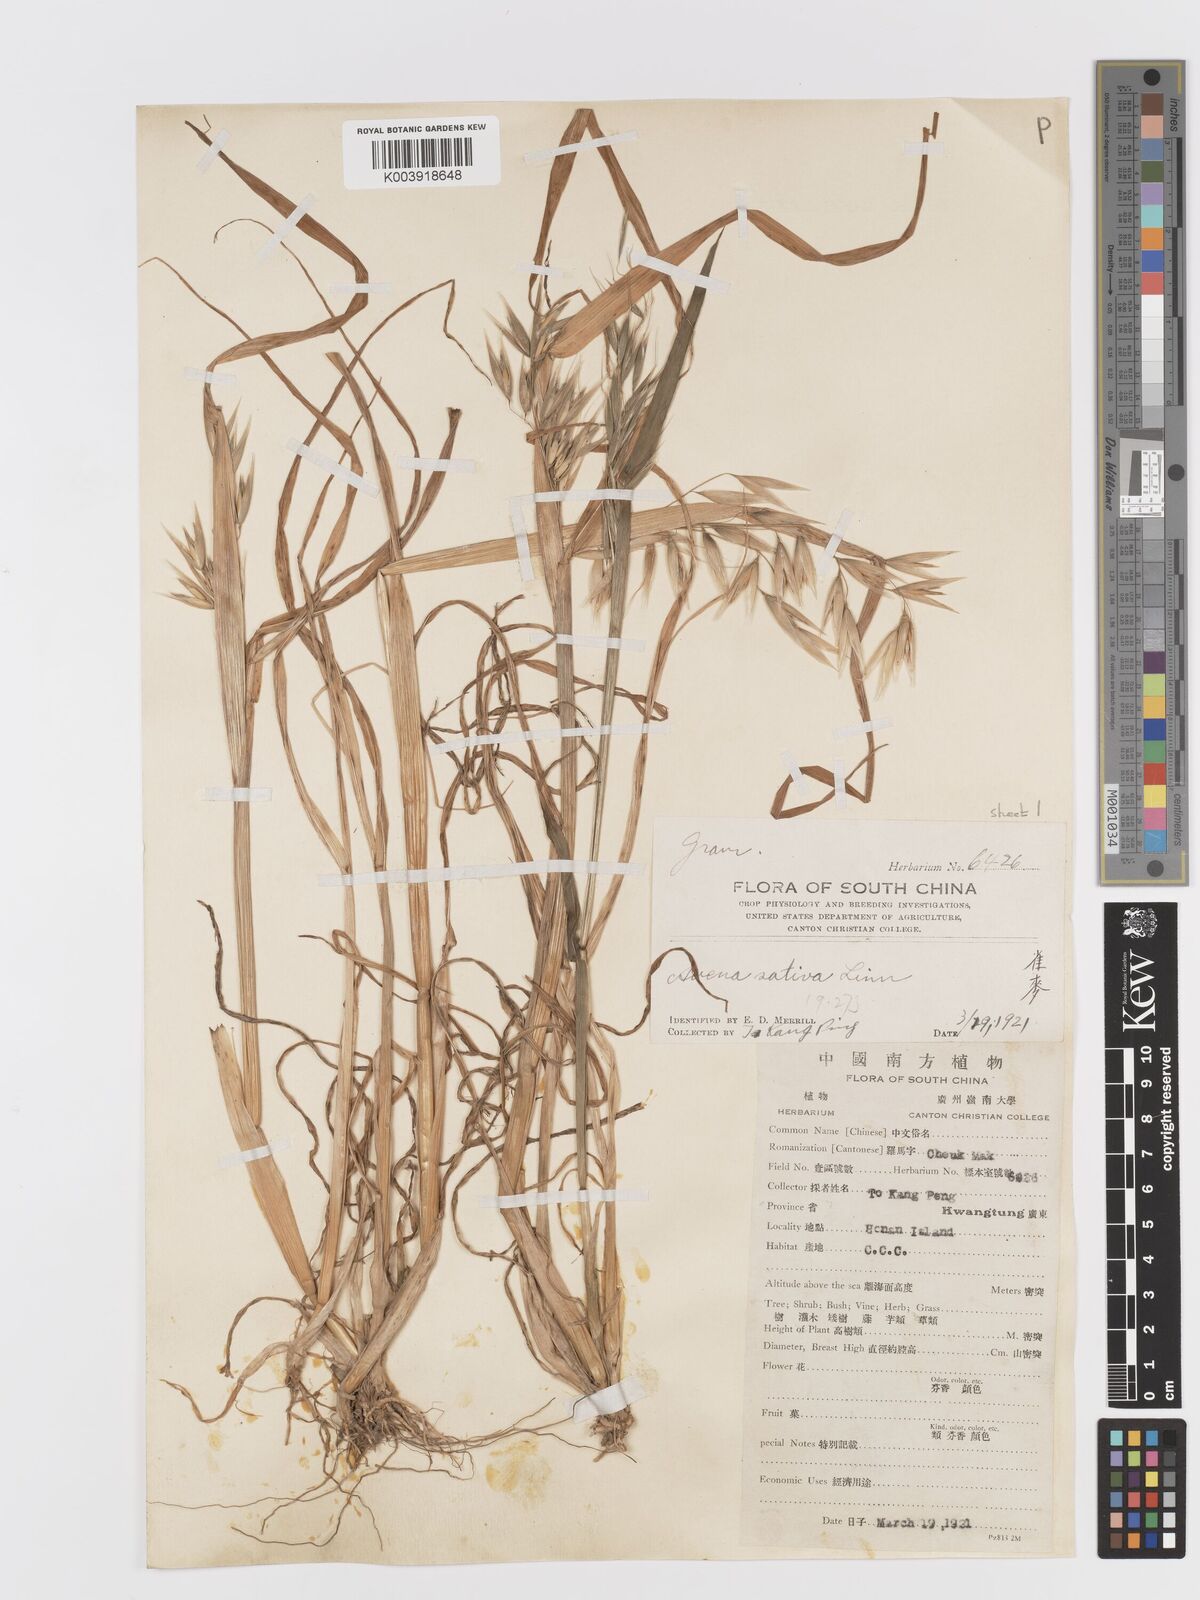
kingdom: Plantae
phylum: Tracheophyta
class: Liliopsida
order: Poales
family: Poaceae
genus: Avena
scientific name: Avena sativa
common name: Oat
